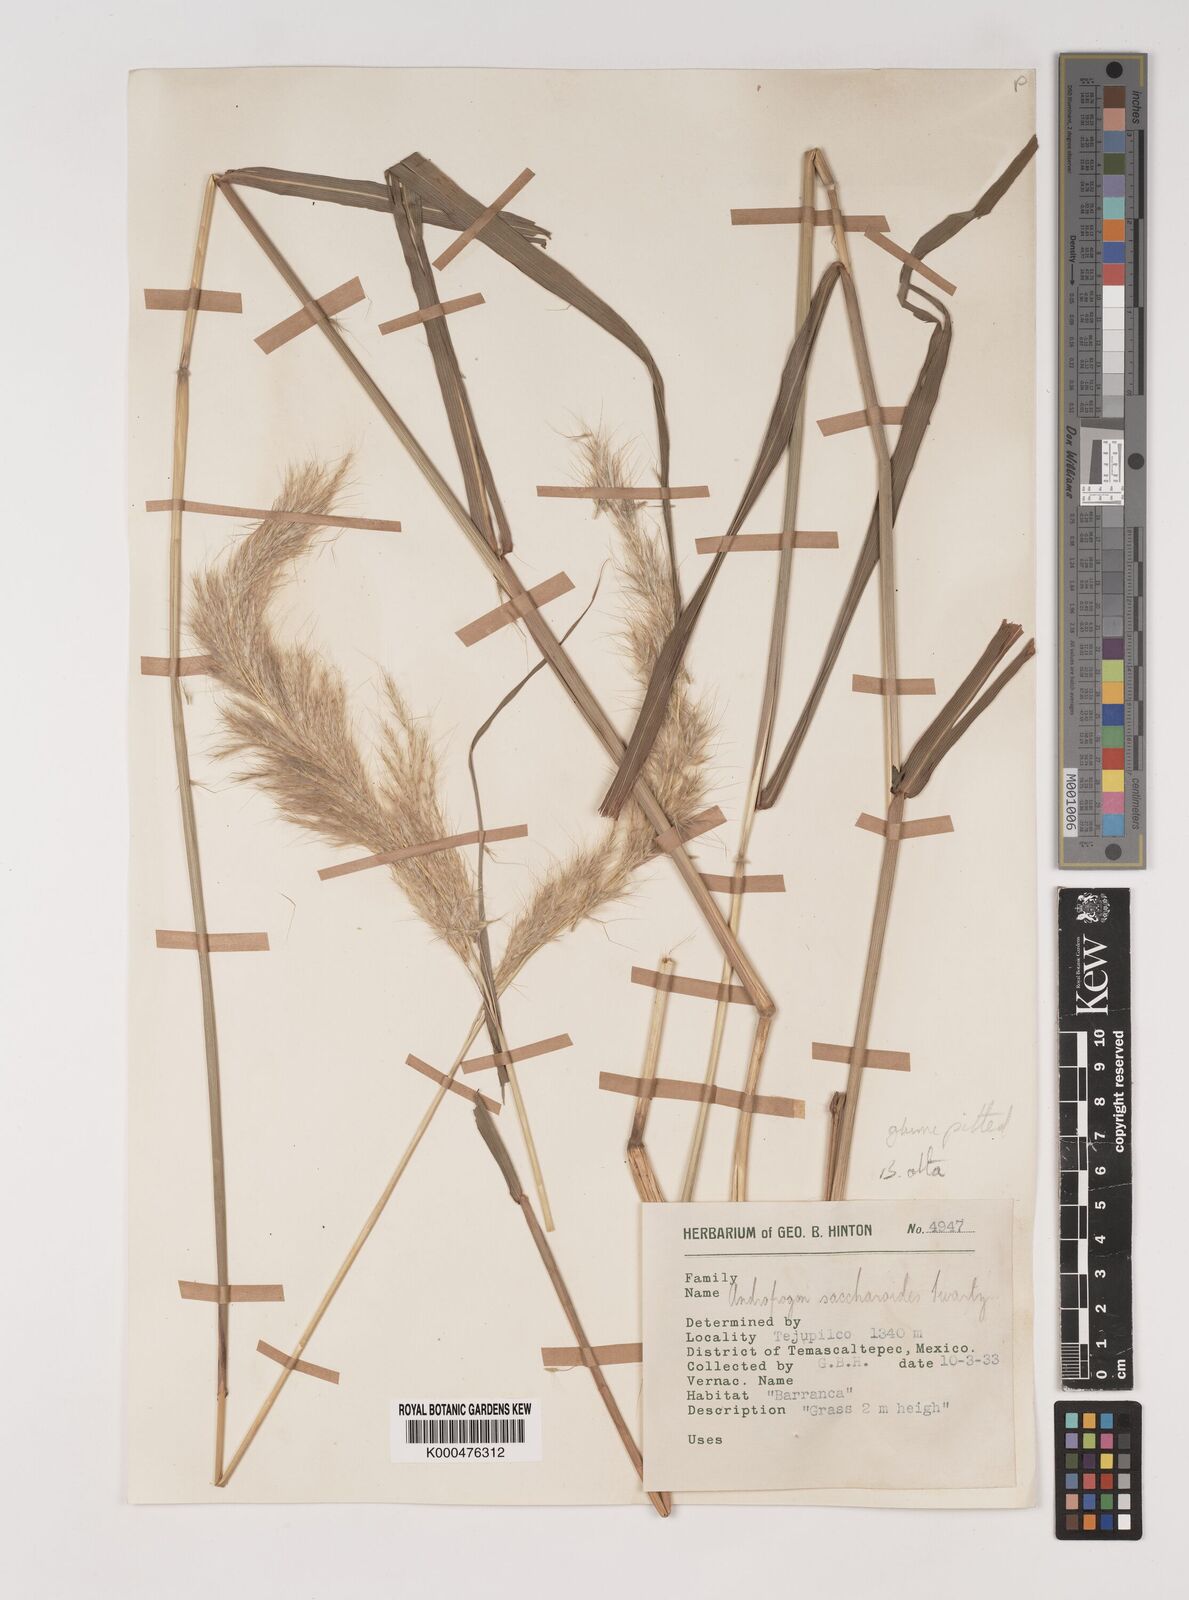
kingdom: Plantae
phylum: Tracheophyta
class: Liliopsida
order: Poales
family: Poaceae
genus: Bothriochloa
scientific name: Bothriochloa alta
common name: Tall bluestem
